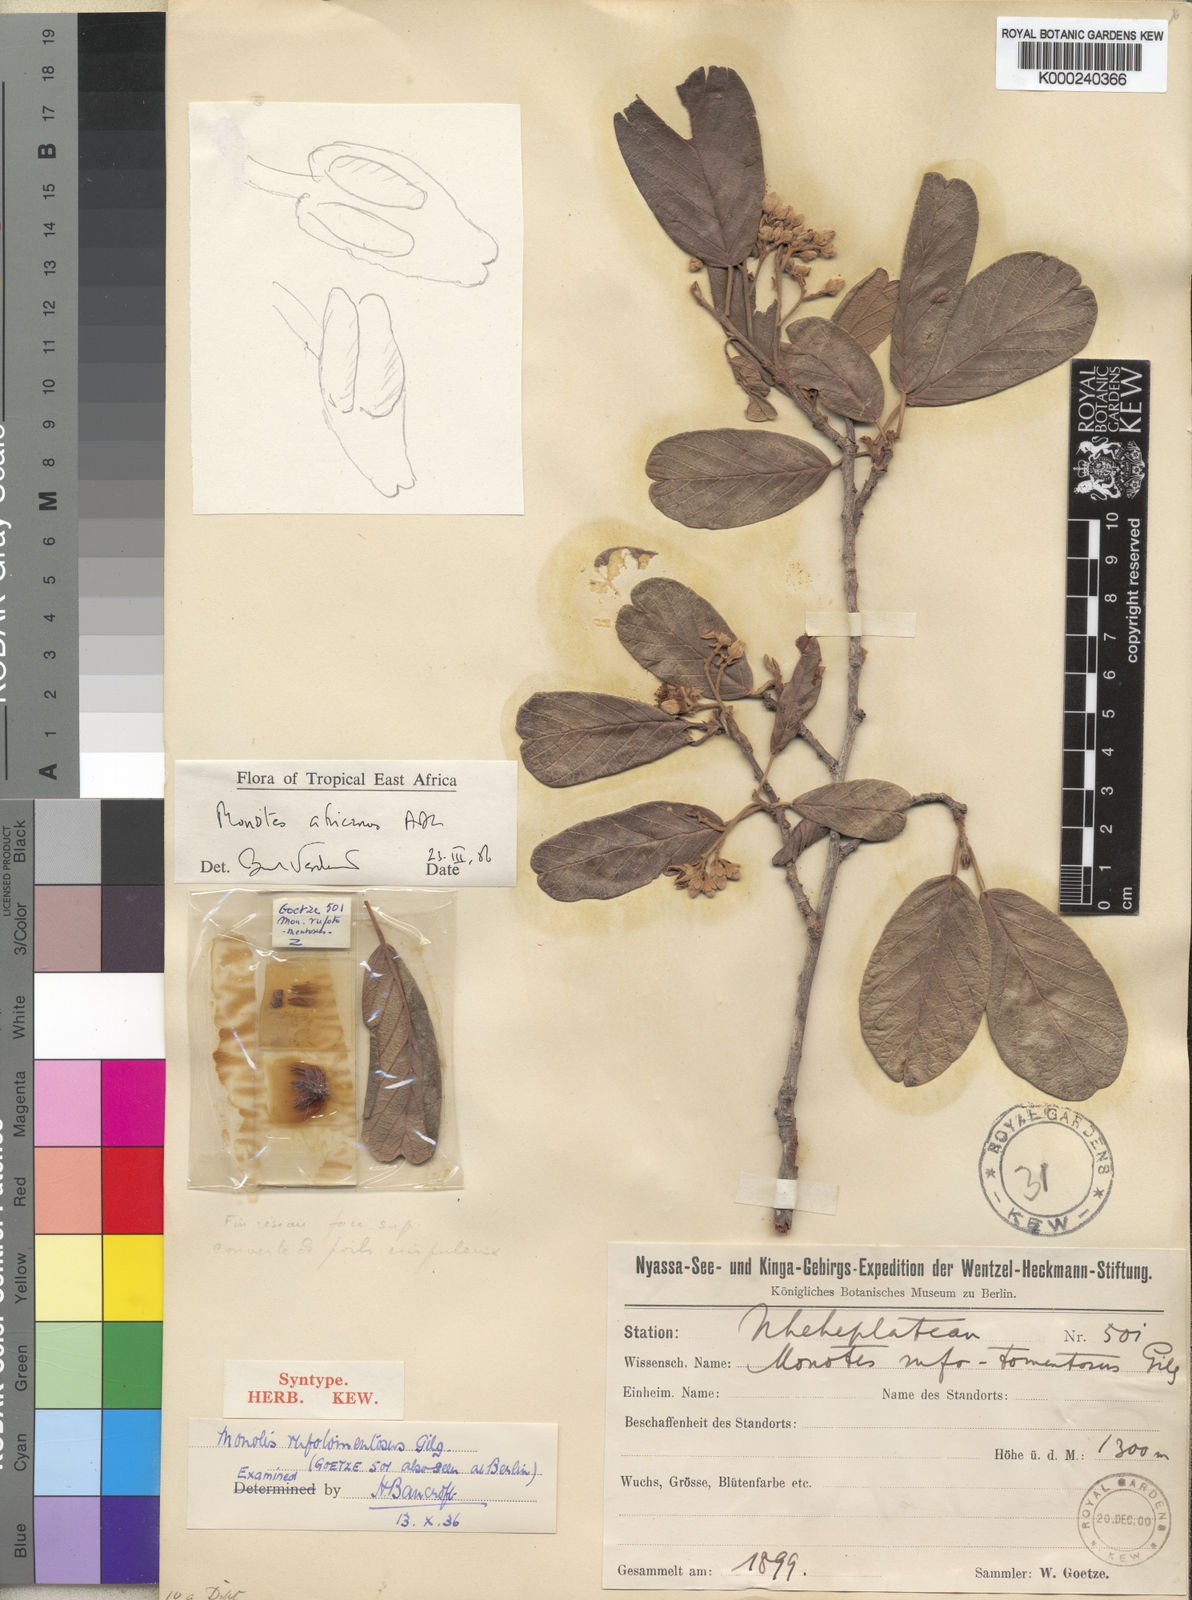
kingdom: Plantae
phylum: Tracheophyta
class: Magnoliopsida
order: Malvales
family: Dipterocarpaceae
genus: Monotes
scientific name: Monotes
